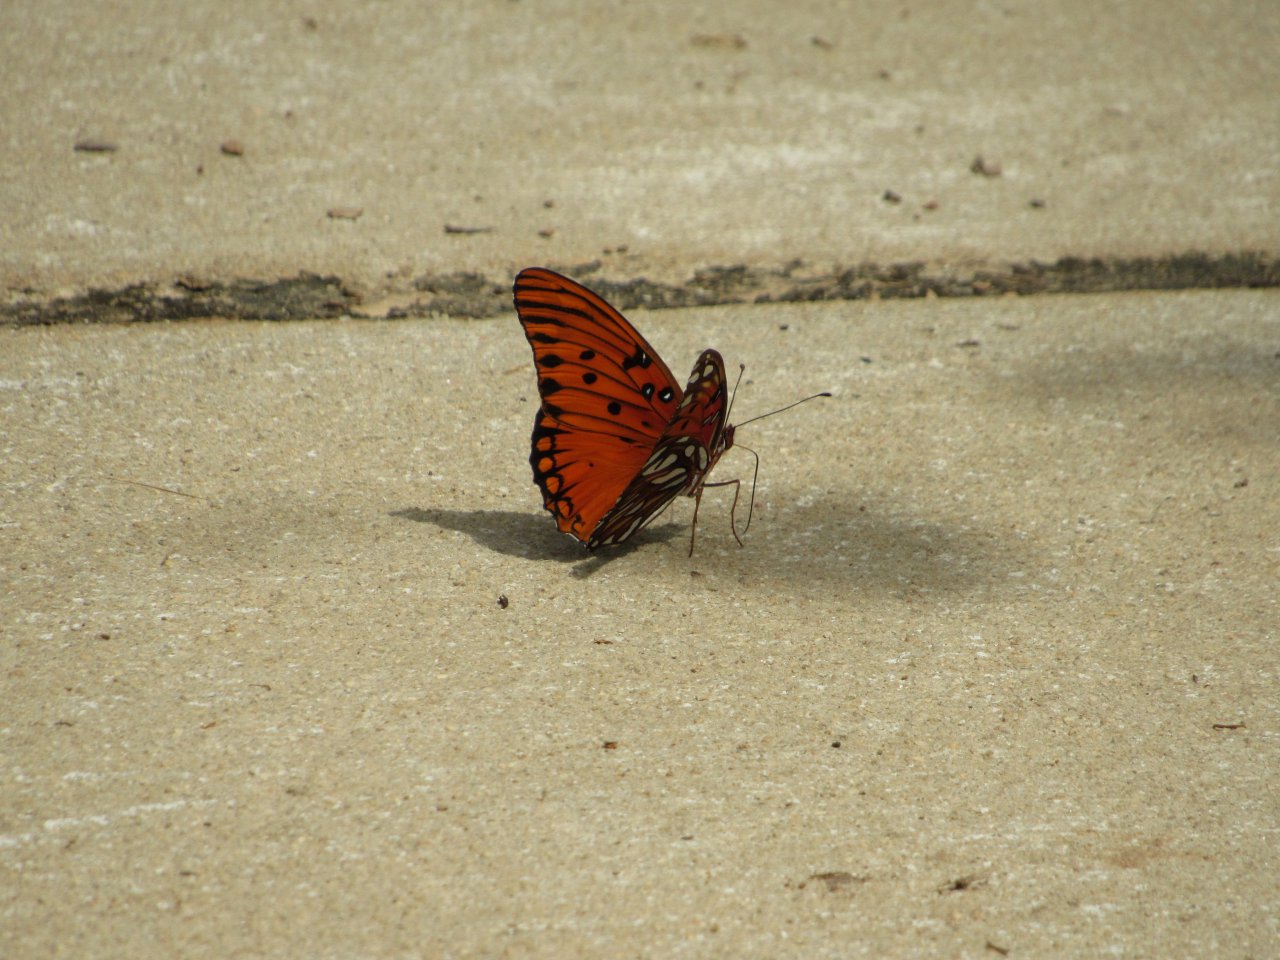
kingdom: Animalia
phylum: Arthropoda
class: Insecta
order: Lepidoptera
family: Nymphalidae
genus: Dione
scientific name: Dione vanillae
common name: Gulf Fritillary
